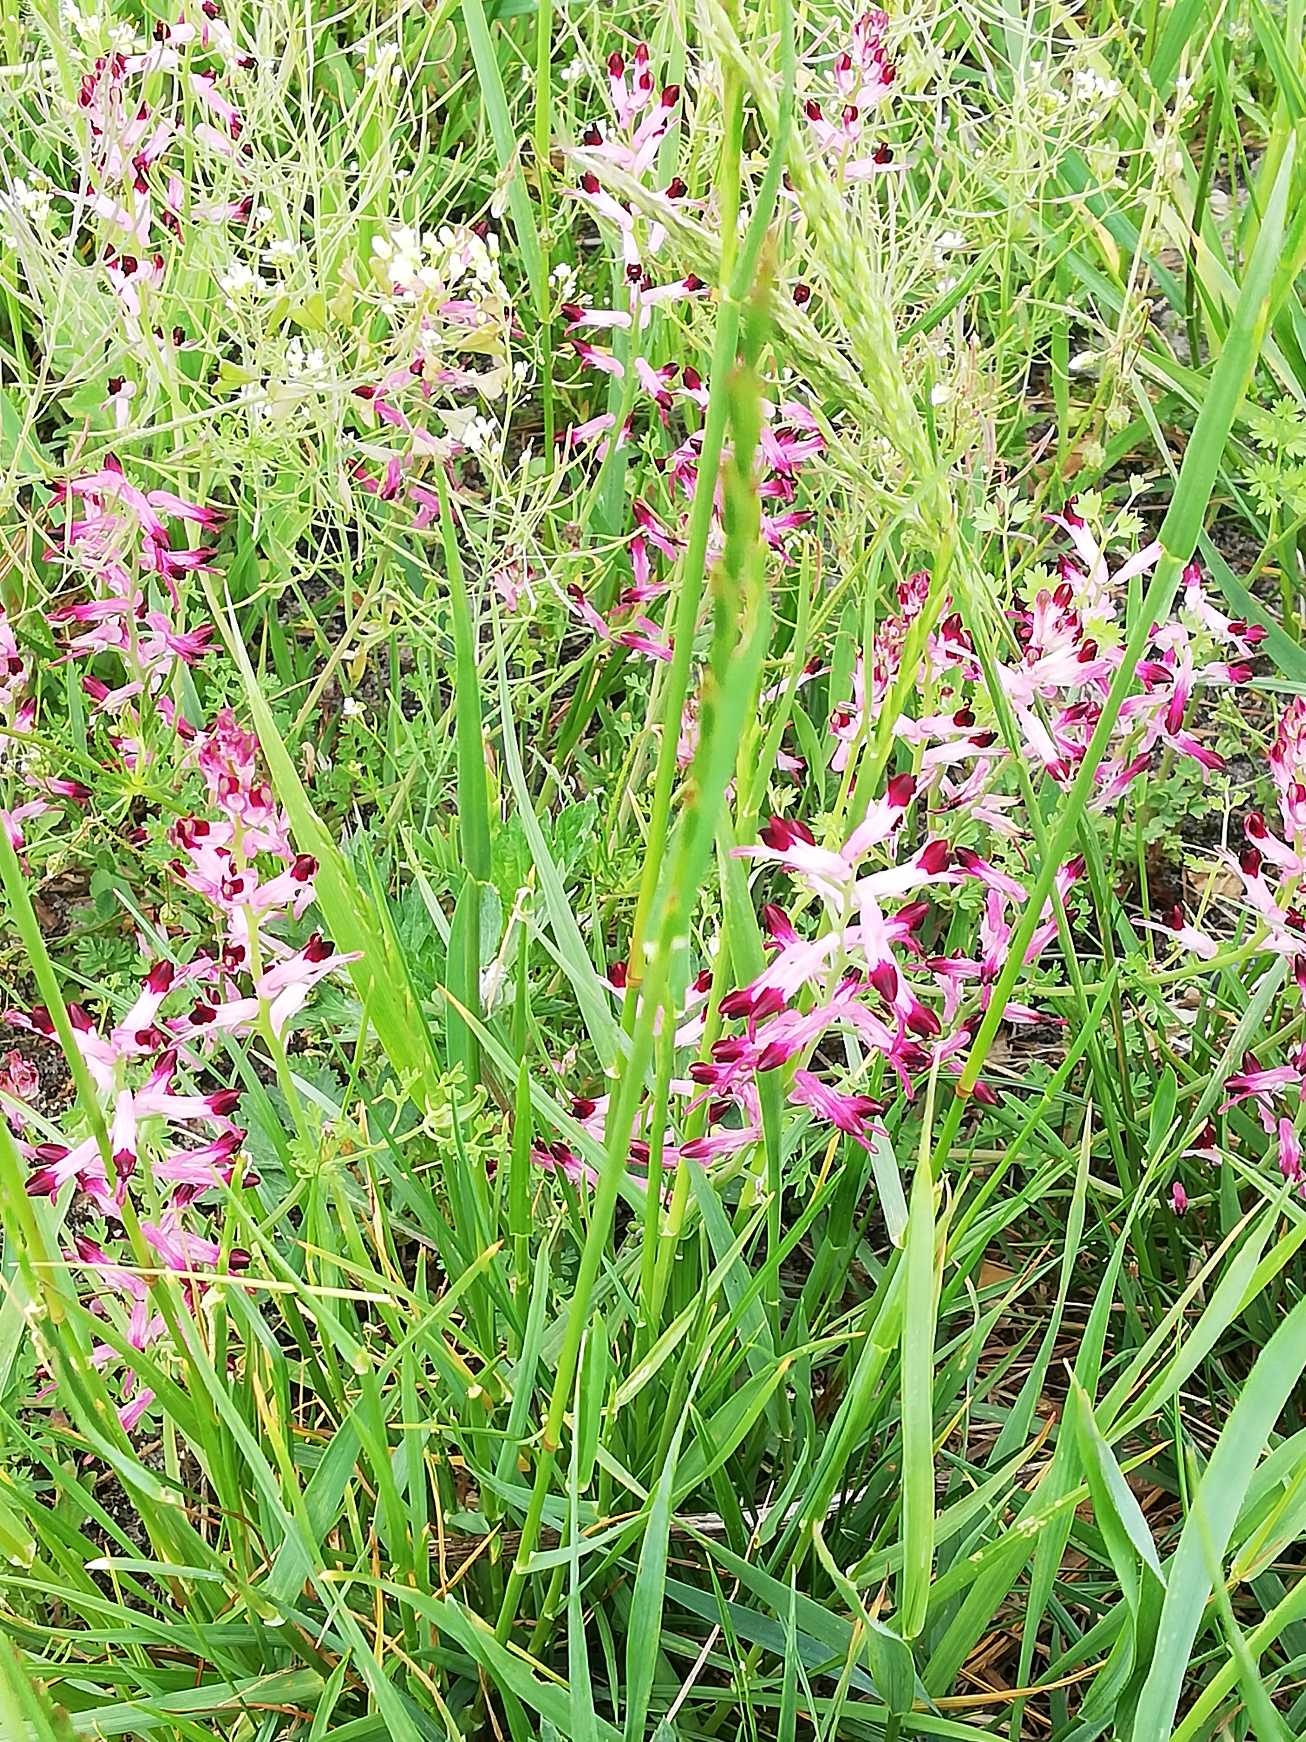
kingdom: Plantae
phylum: Tracheophyta
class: Magnoliopsida
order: Ranunculales
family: Papaveraceae
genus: Fumaria
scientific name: Fumaria muralis
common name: Mur-jordrøg
